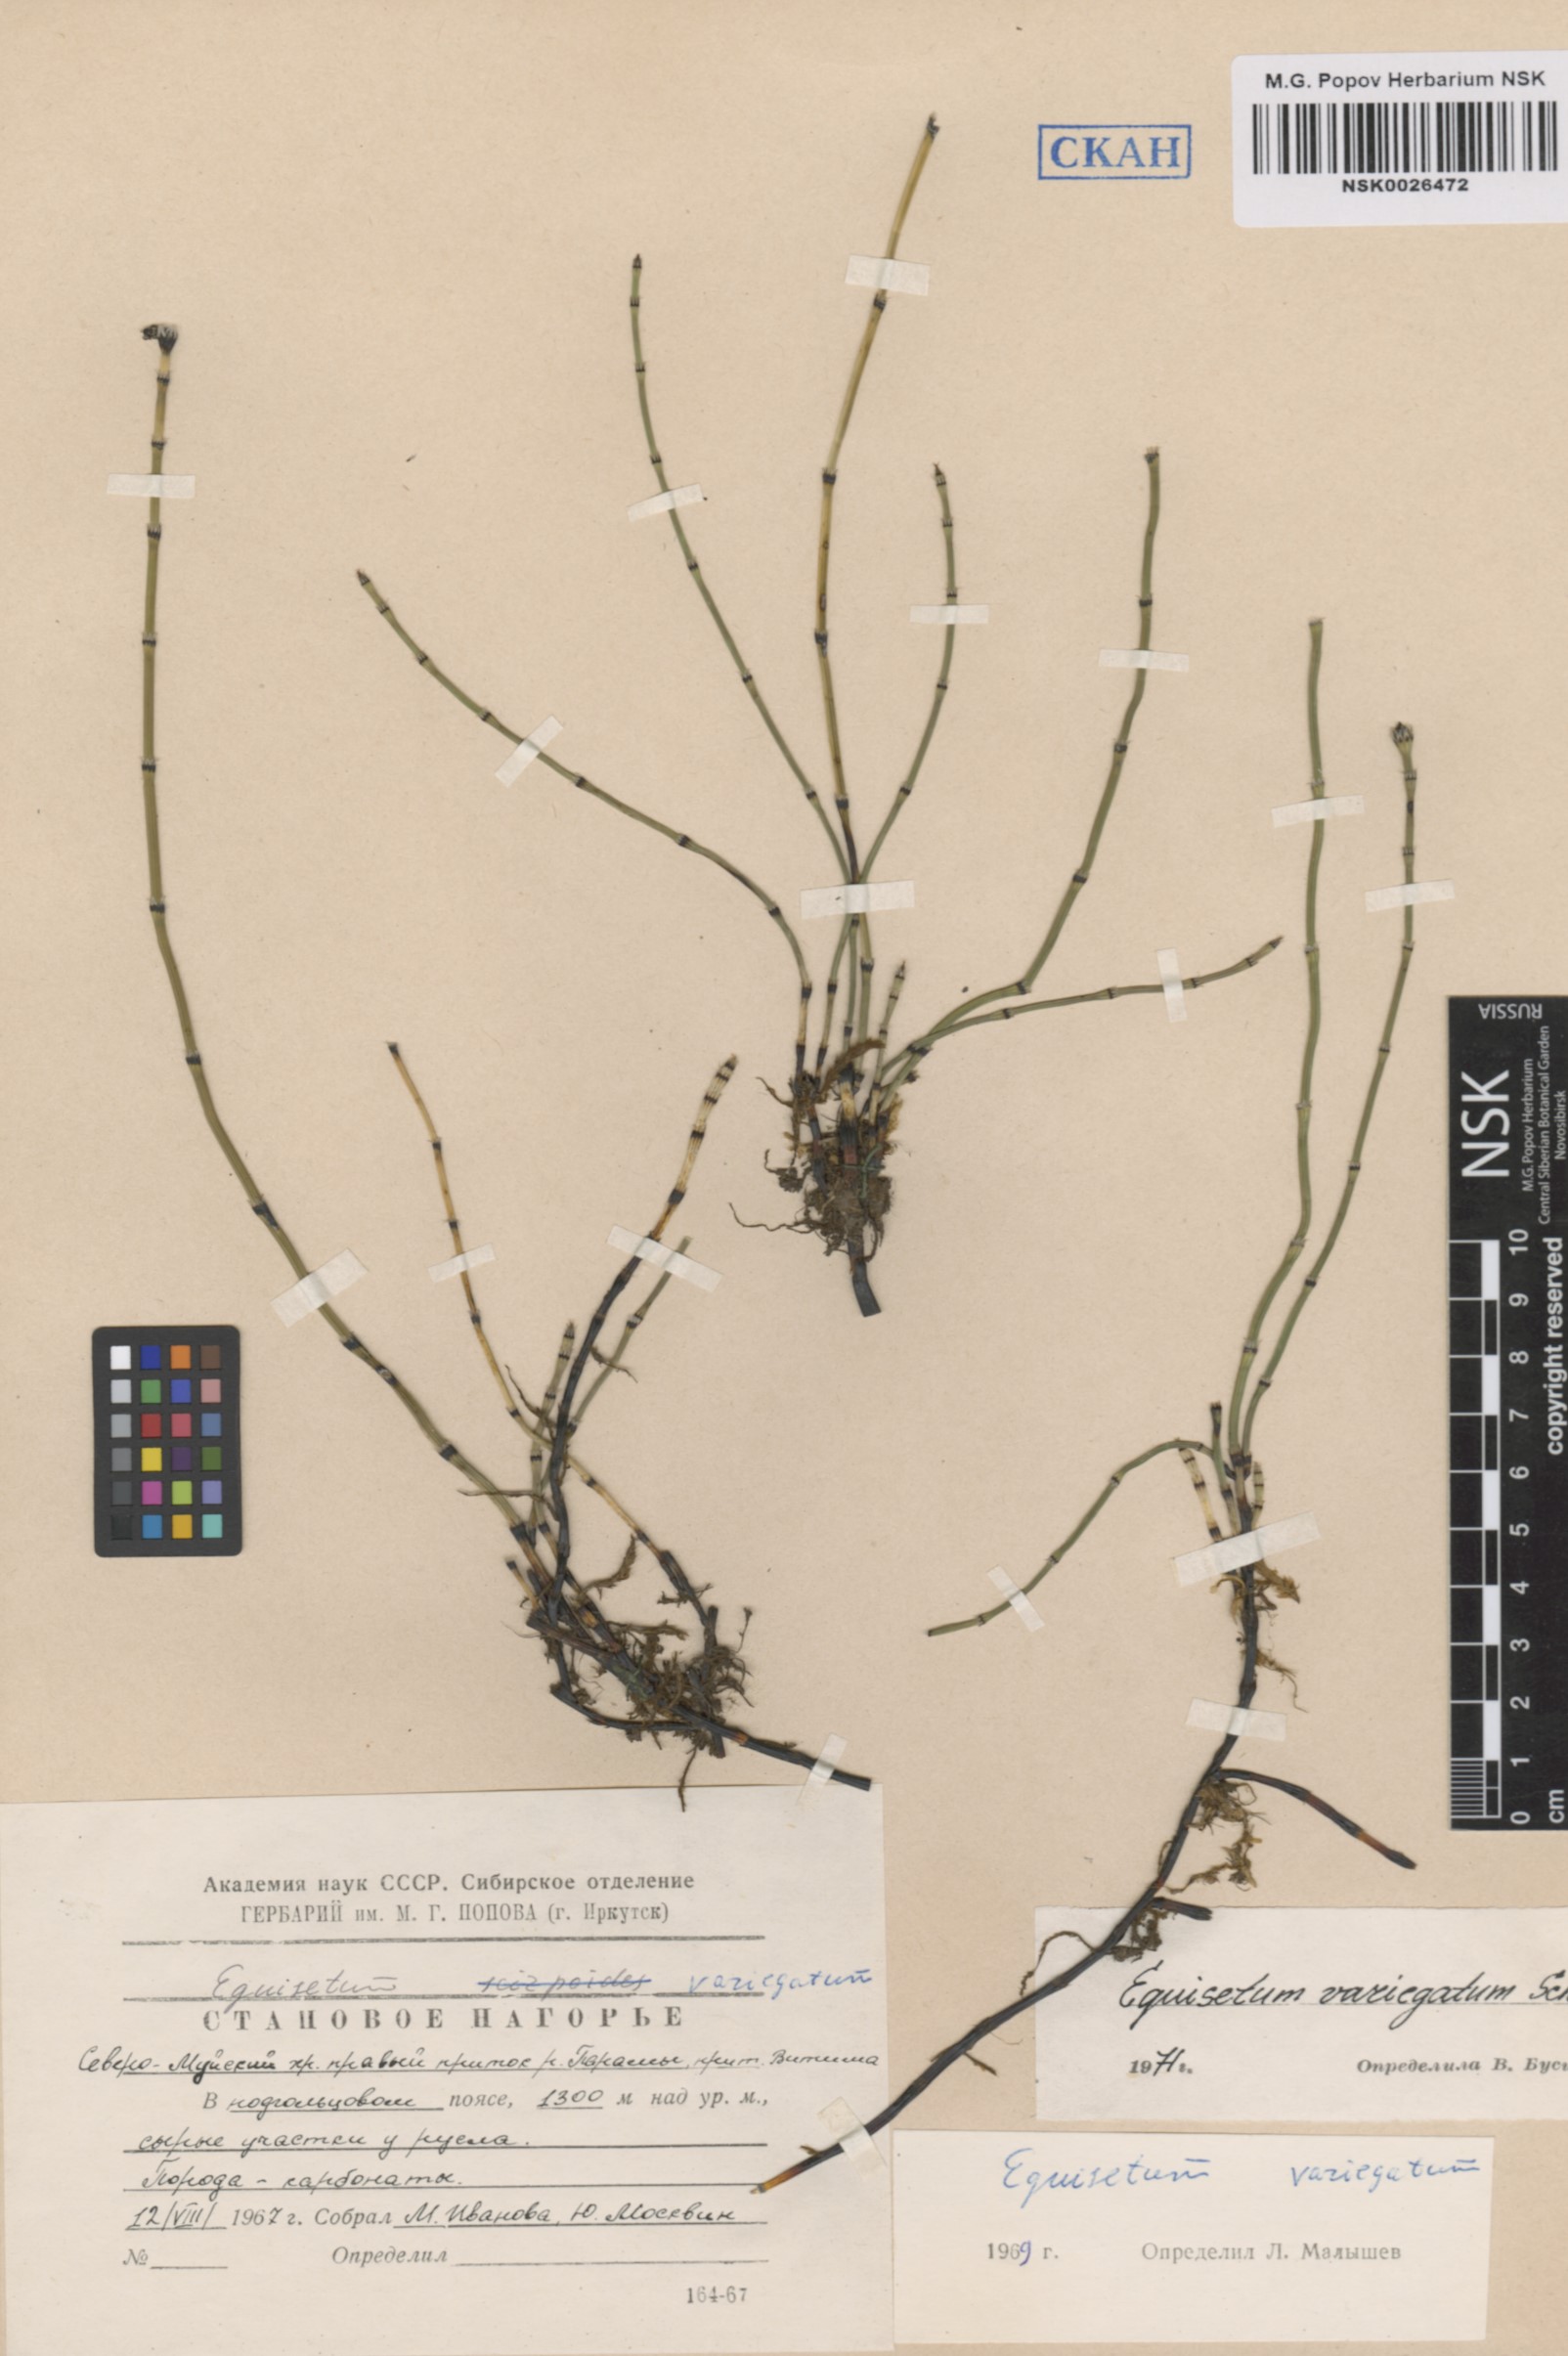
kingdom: Plantae
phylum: Tracheophyta
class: Polypodiopsida
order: Equisetales
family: Equisetaceae
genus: Equisetum
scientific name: Equisetum variegatum
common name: Variegated horsetail
